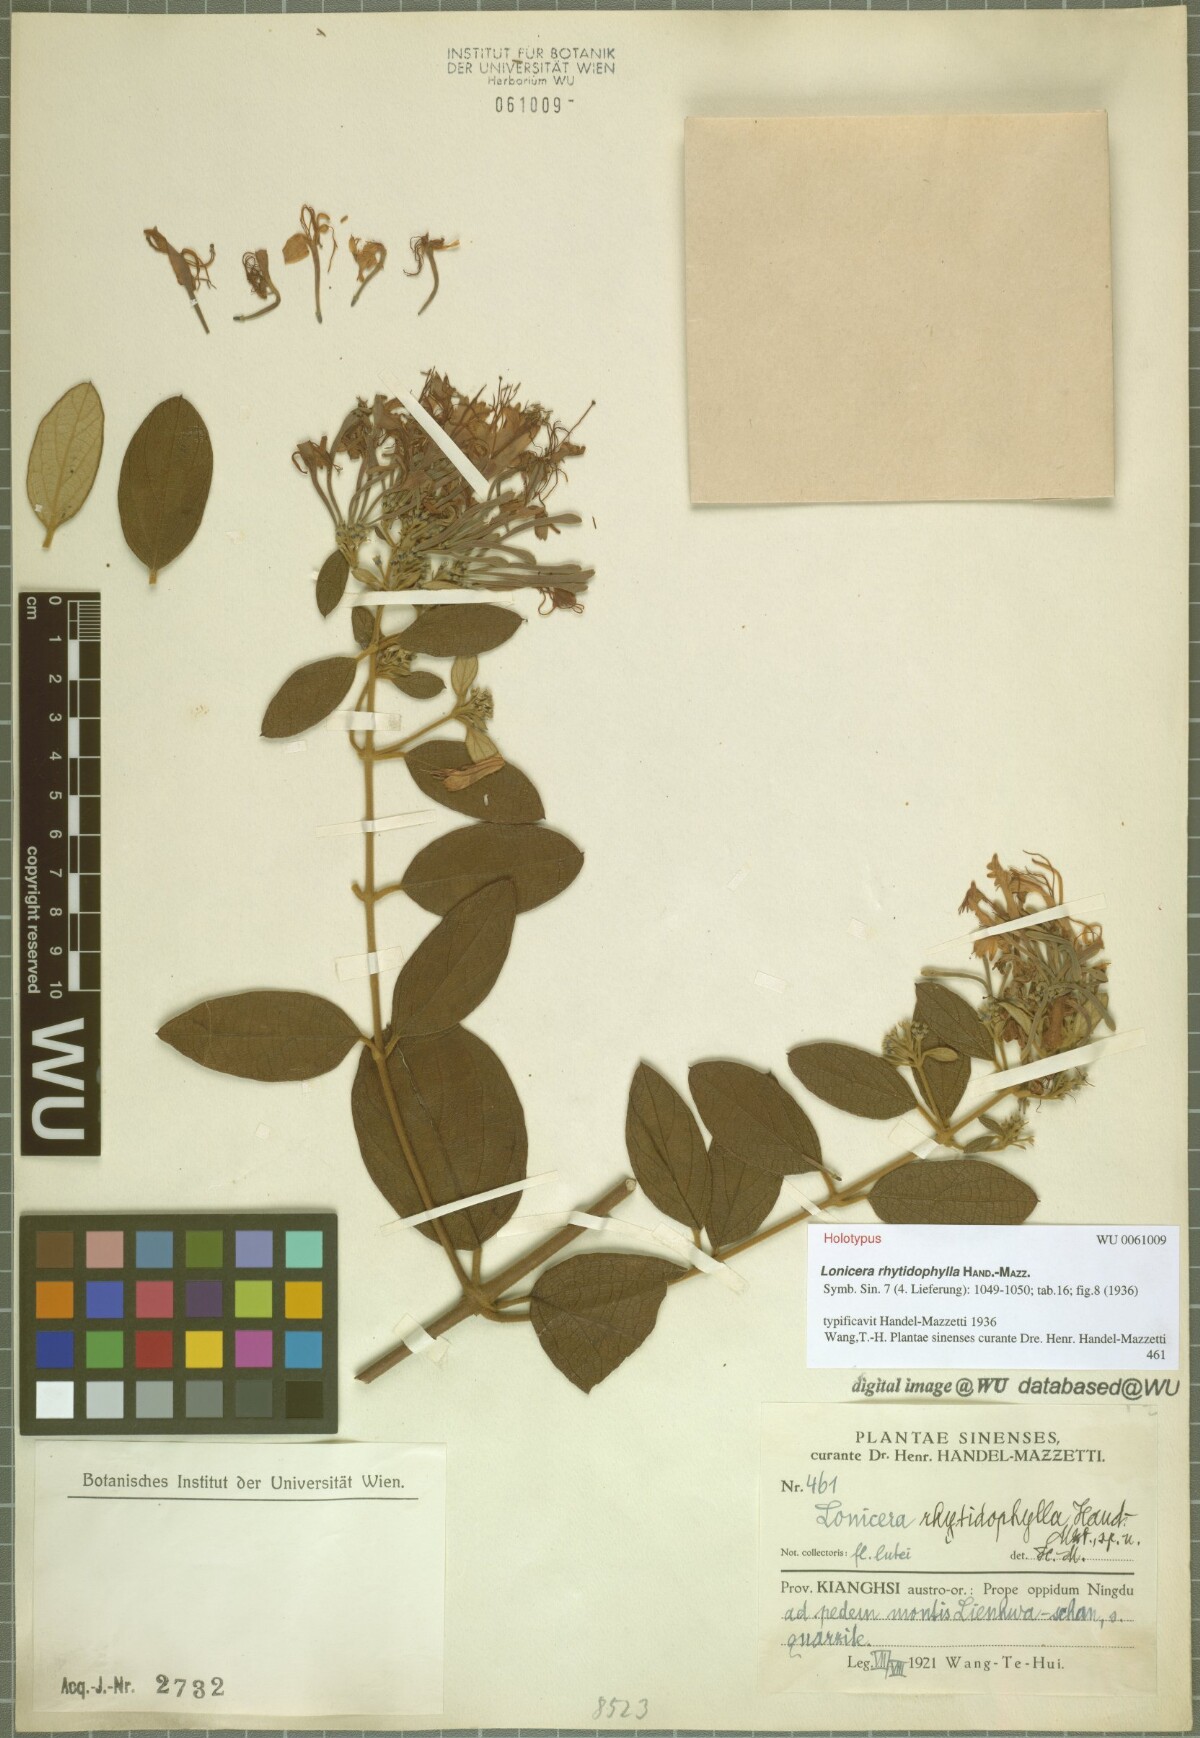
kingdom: Plantae
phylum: Tracheophyta
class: Magnoliopsida
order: Dipsacales
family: Caprifoliaceae
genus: Lonicera
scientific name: Lonicera rhytidophylla
